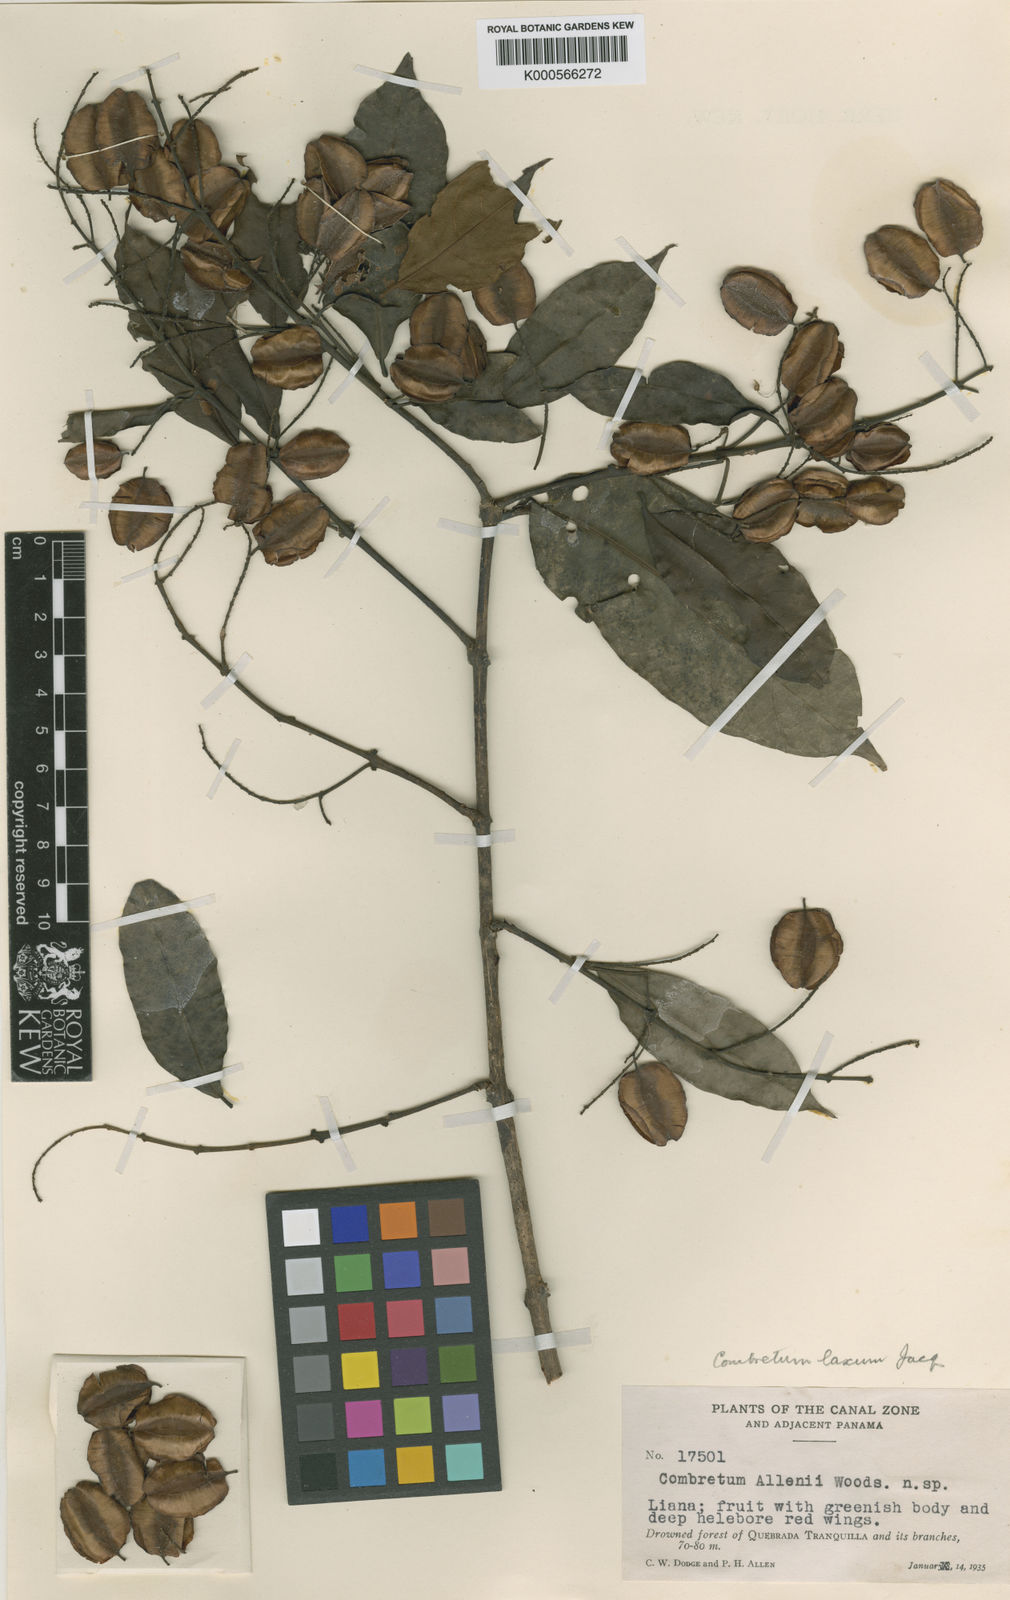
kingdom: Plantae
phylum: Tracheophyta
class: Magnoliopsida
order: Myrtales
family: Combretaceae
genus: Combretum
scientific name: Combretum laxum
